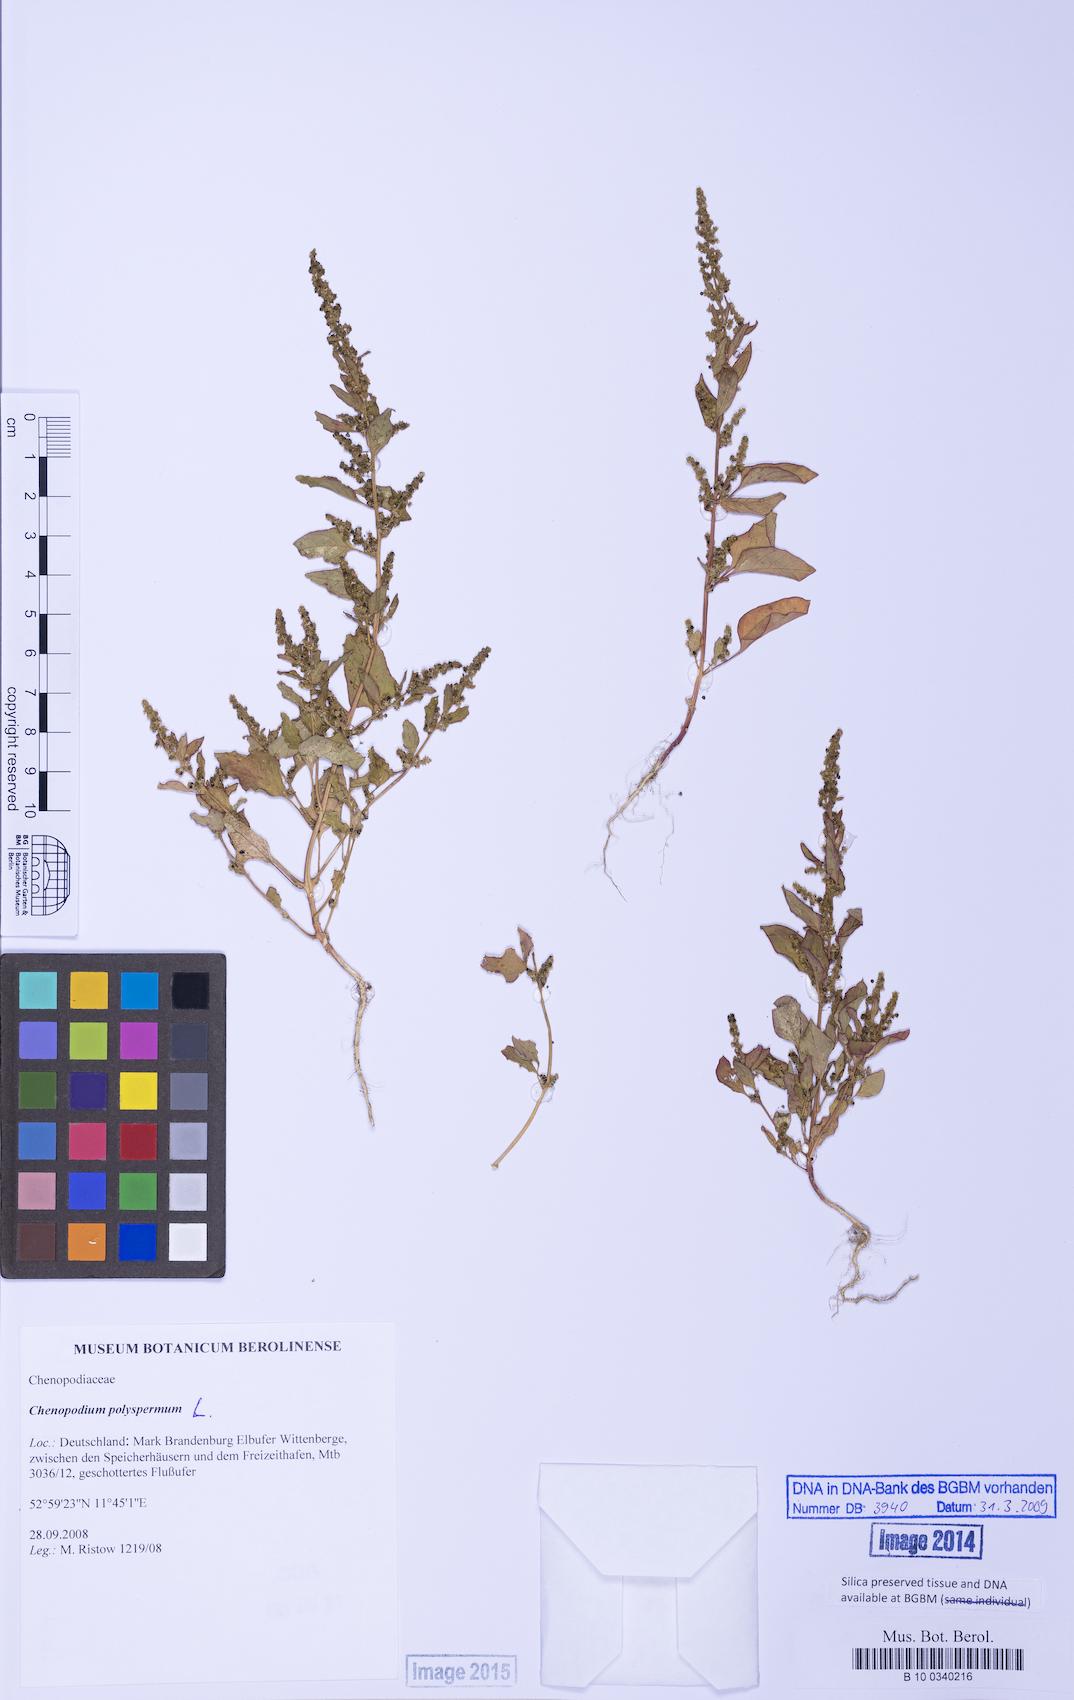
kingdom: Plantae
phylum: Tracheophyta
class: Magnoliopsida
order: Caryophyllales
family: Amaranthaceae
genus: Lipandra
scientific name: Lipandra polysperma
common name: Many-seed goosefoot
